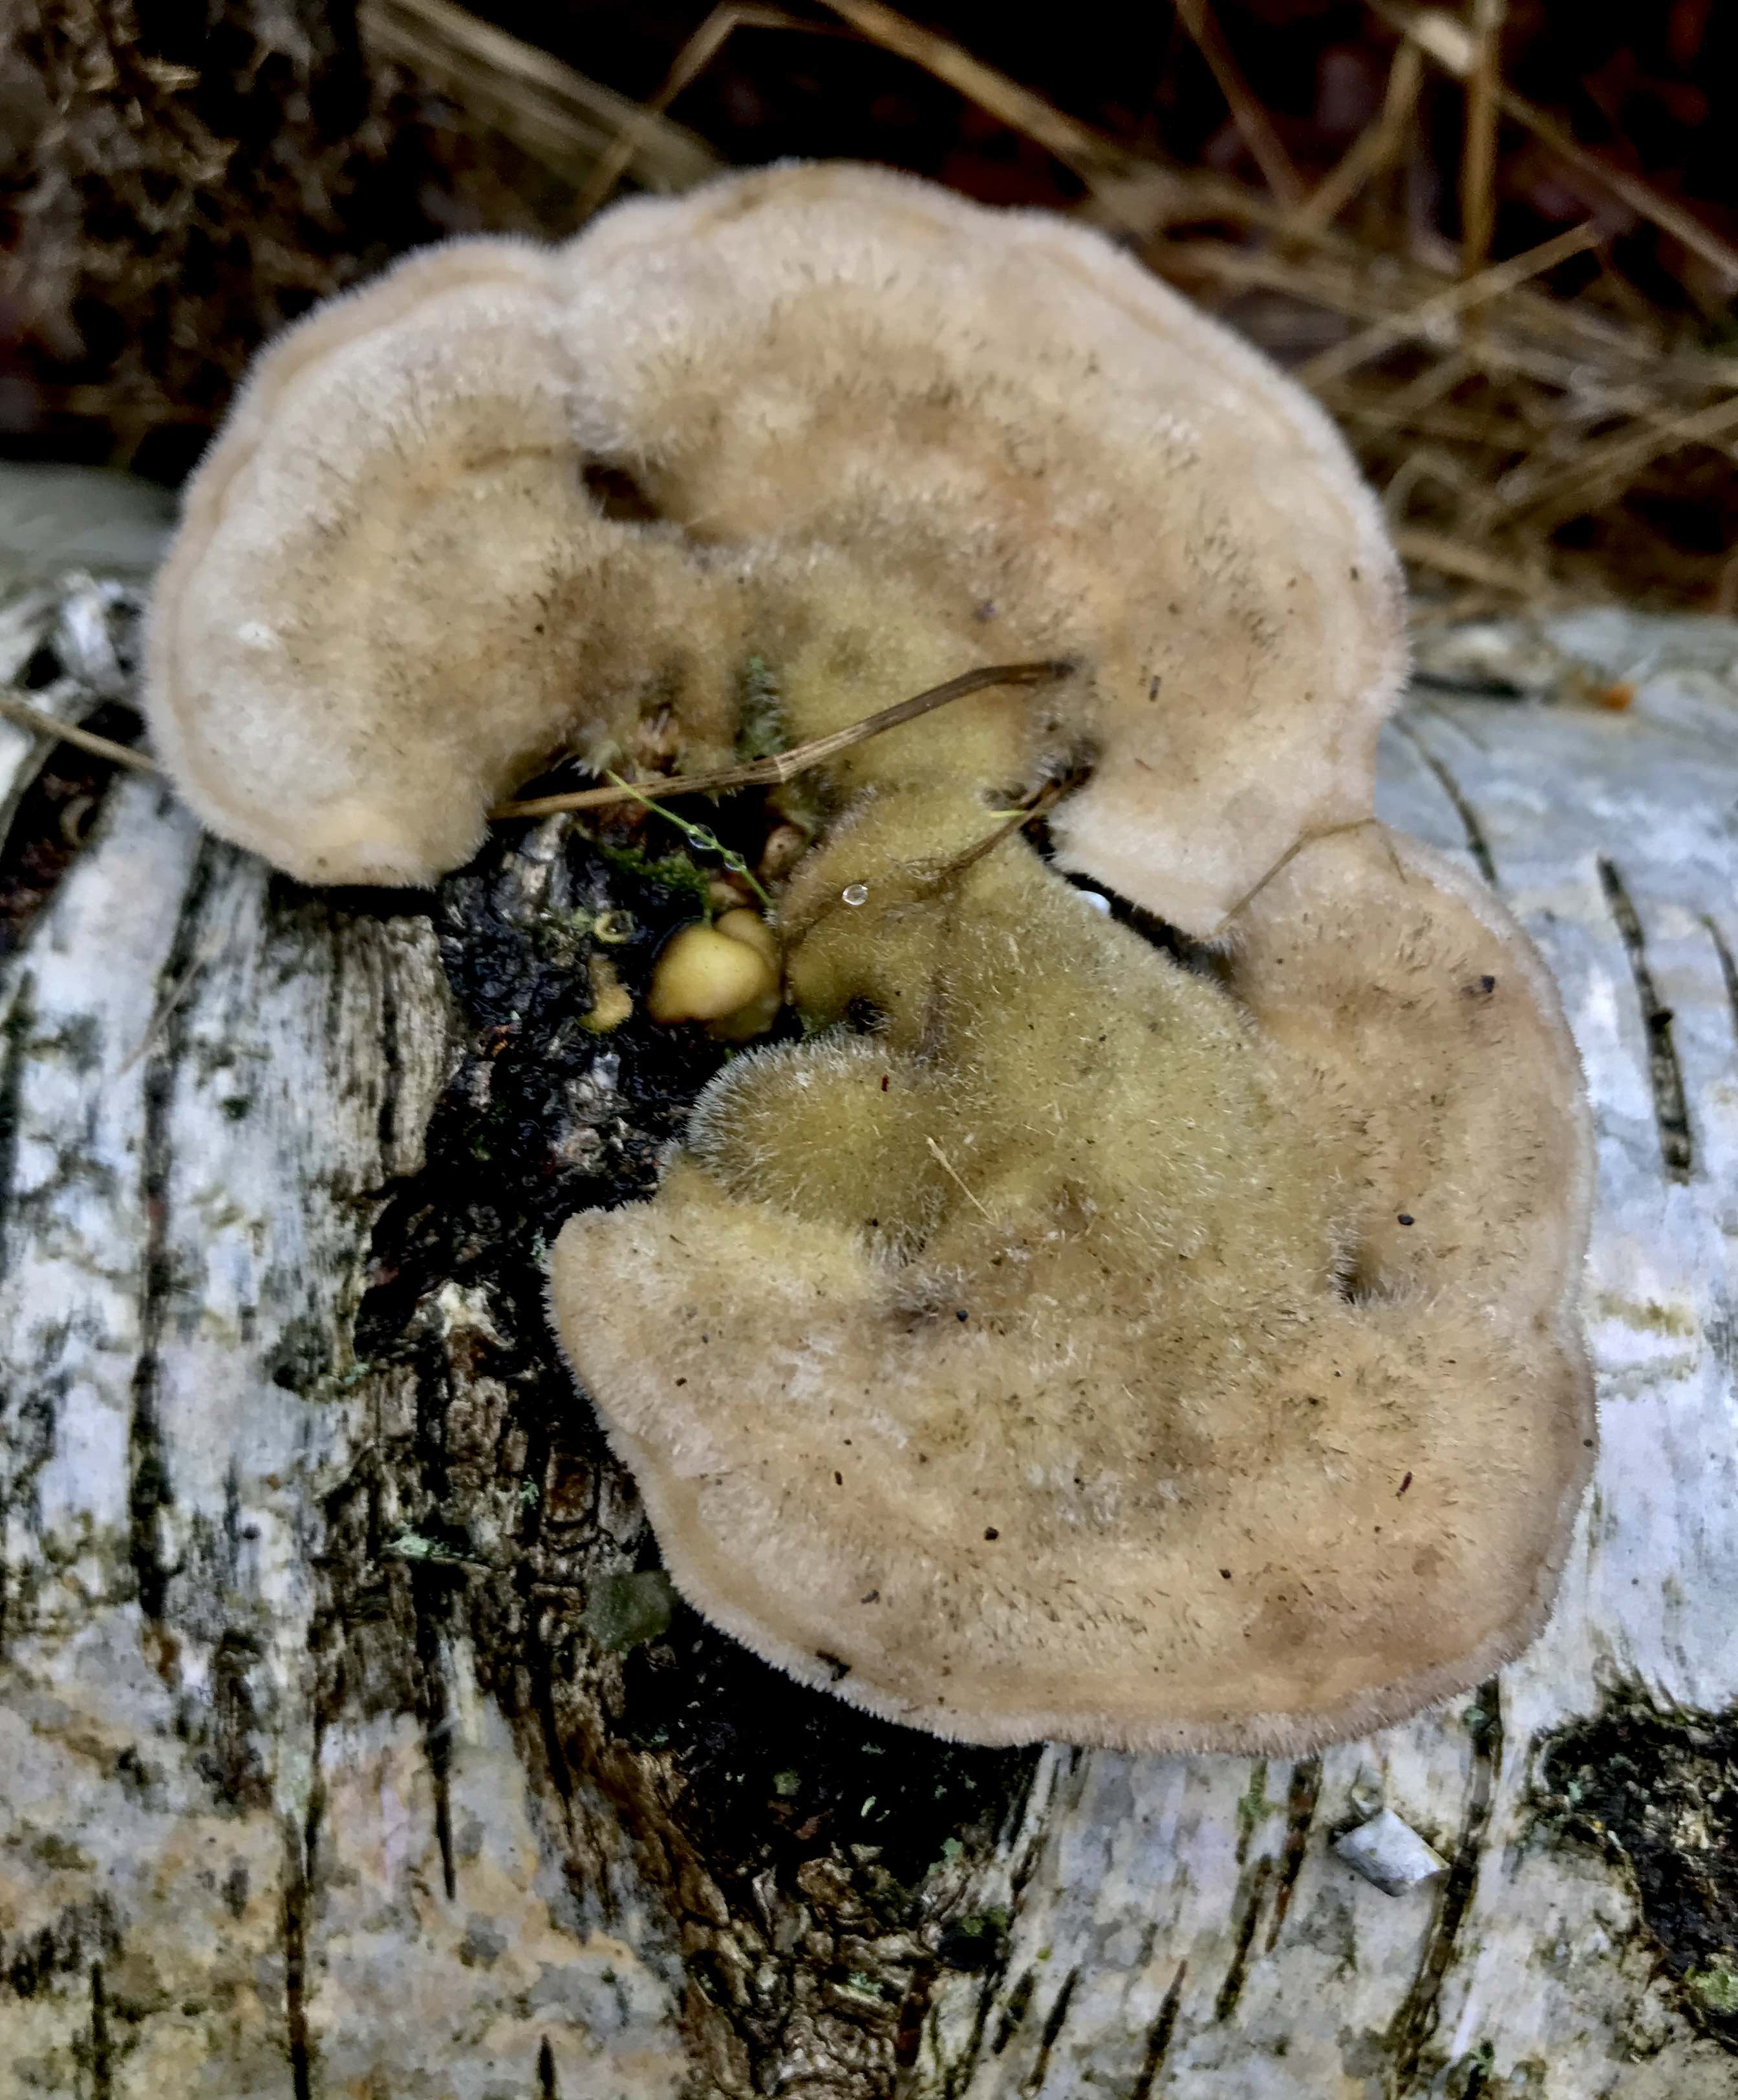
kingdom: Fungi
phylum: Basidiomycota
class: Agaricomycetes
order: Polyporales
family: Polyporaceae
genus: Trametes
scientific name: Trametes hirsuta
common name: håret læderporesvamp
